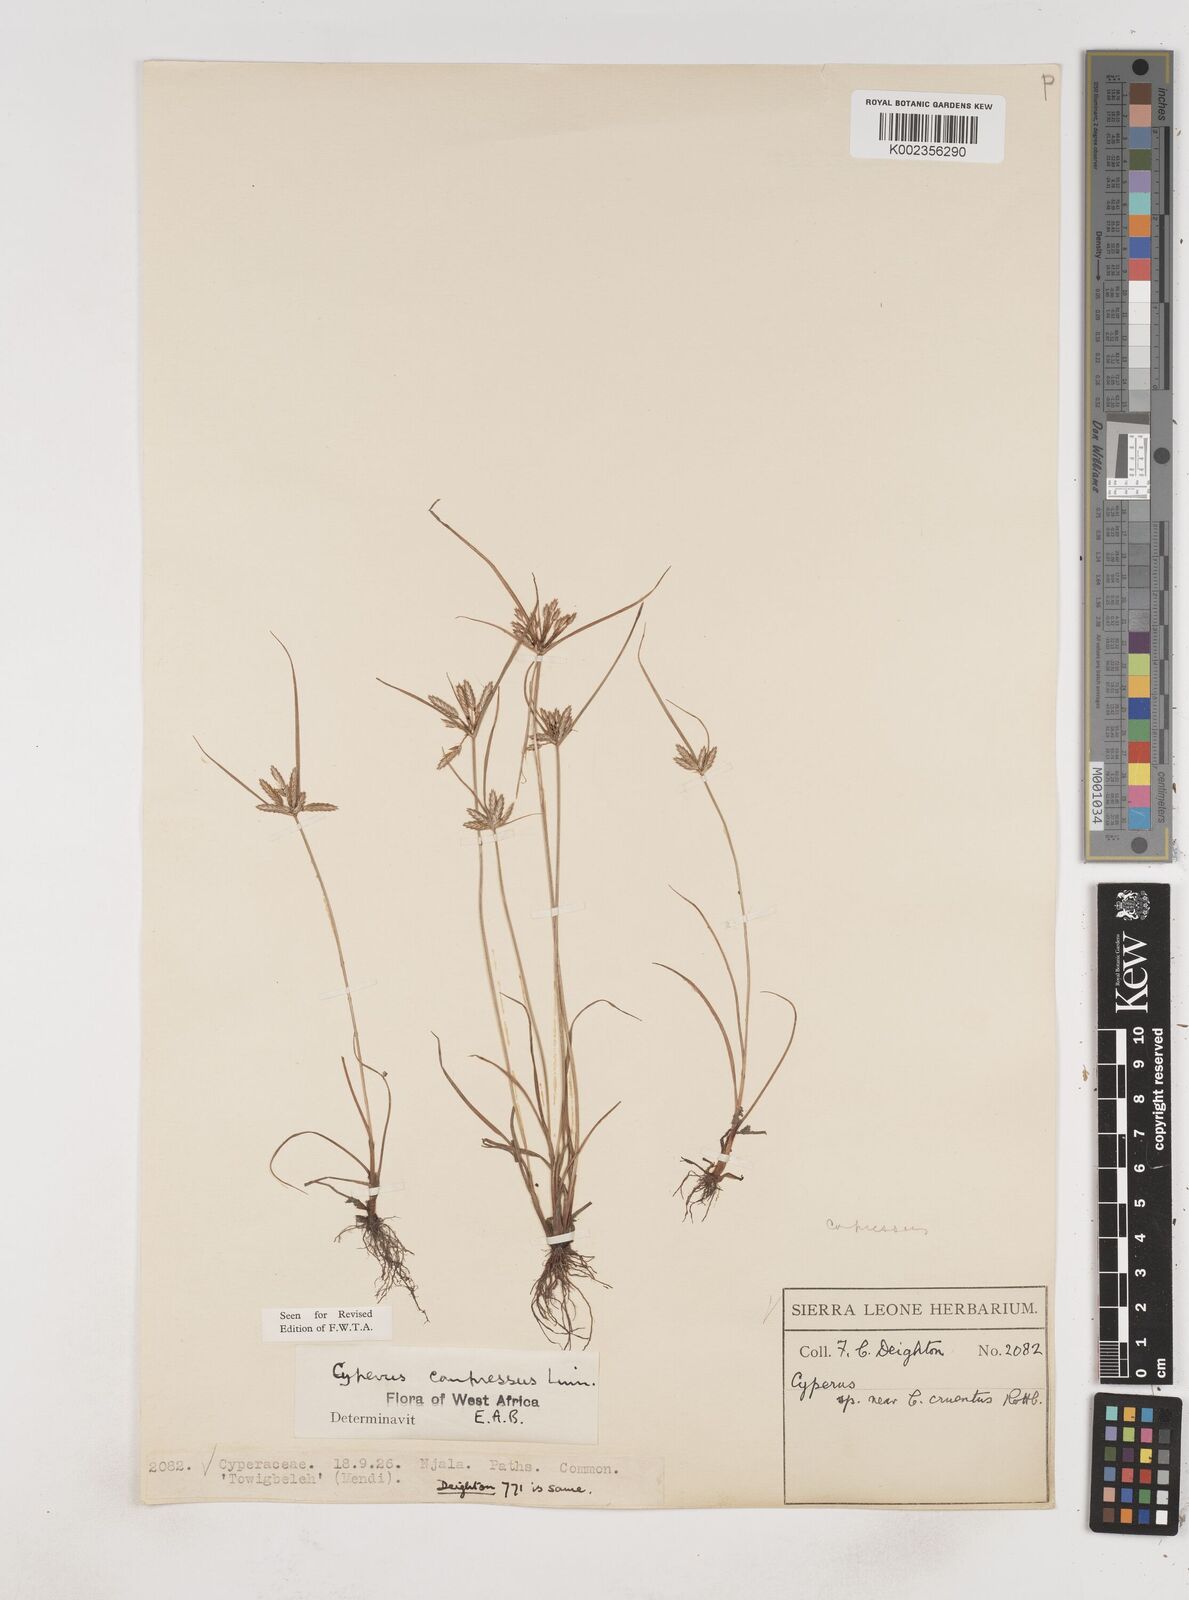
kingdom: Plantae
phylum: Tracheophyta
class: Liliopsida
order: Poales
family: Cyperaceae
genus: Cyperus
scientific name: Cyperus compressus
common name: Poorland flatsedge
